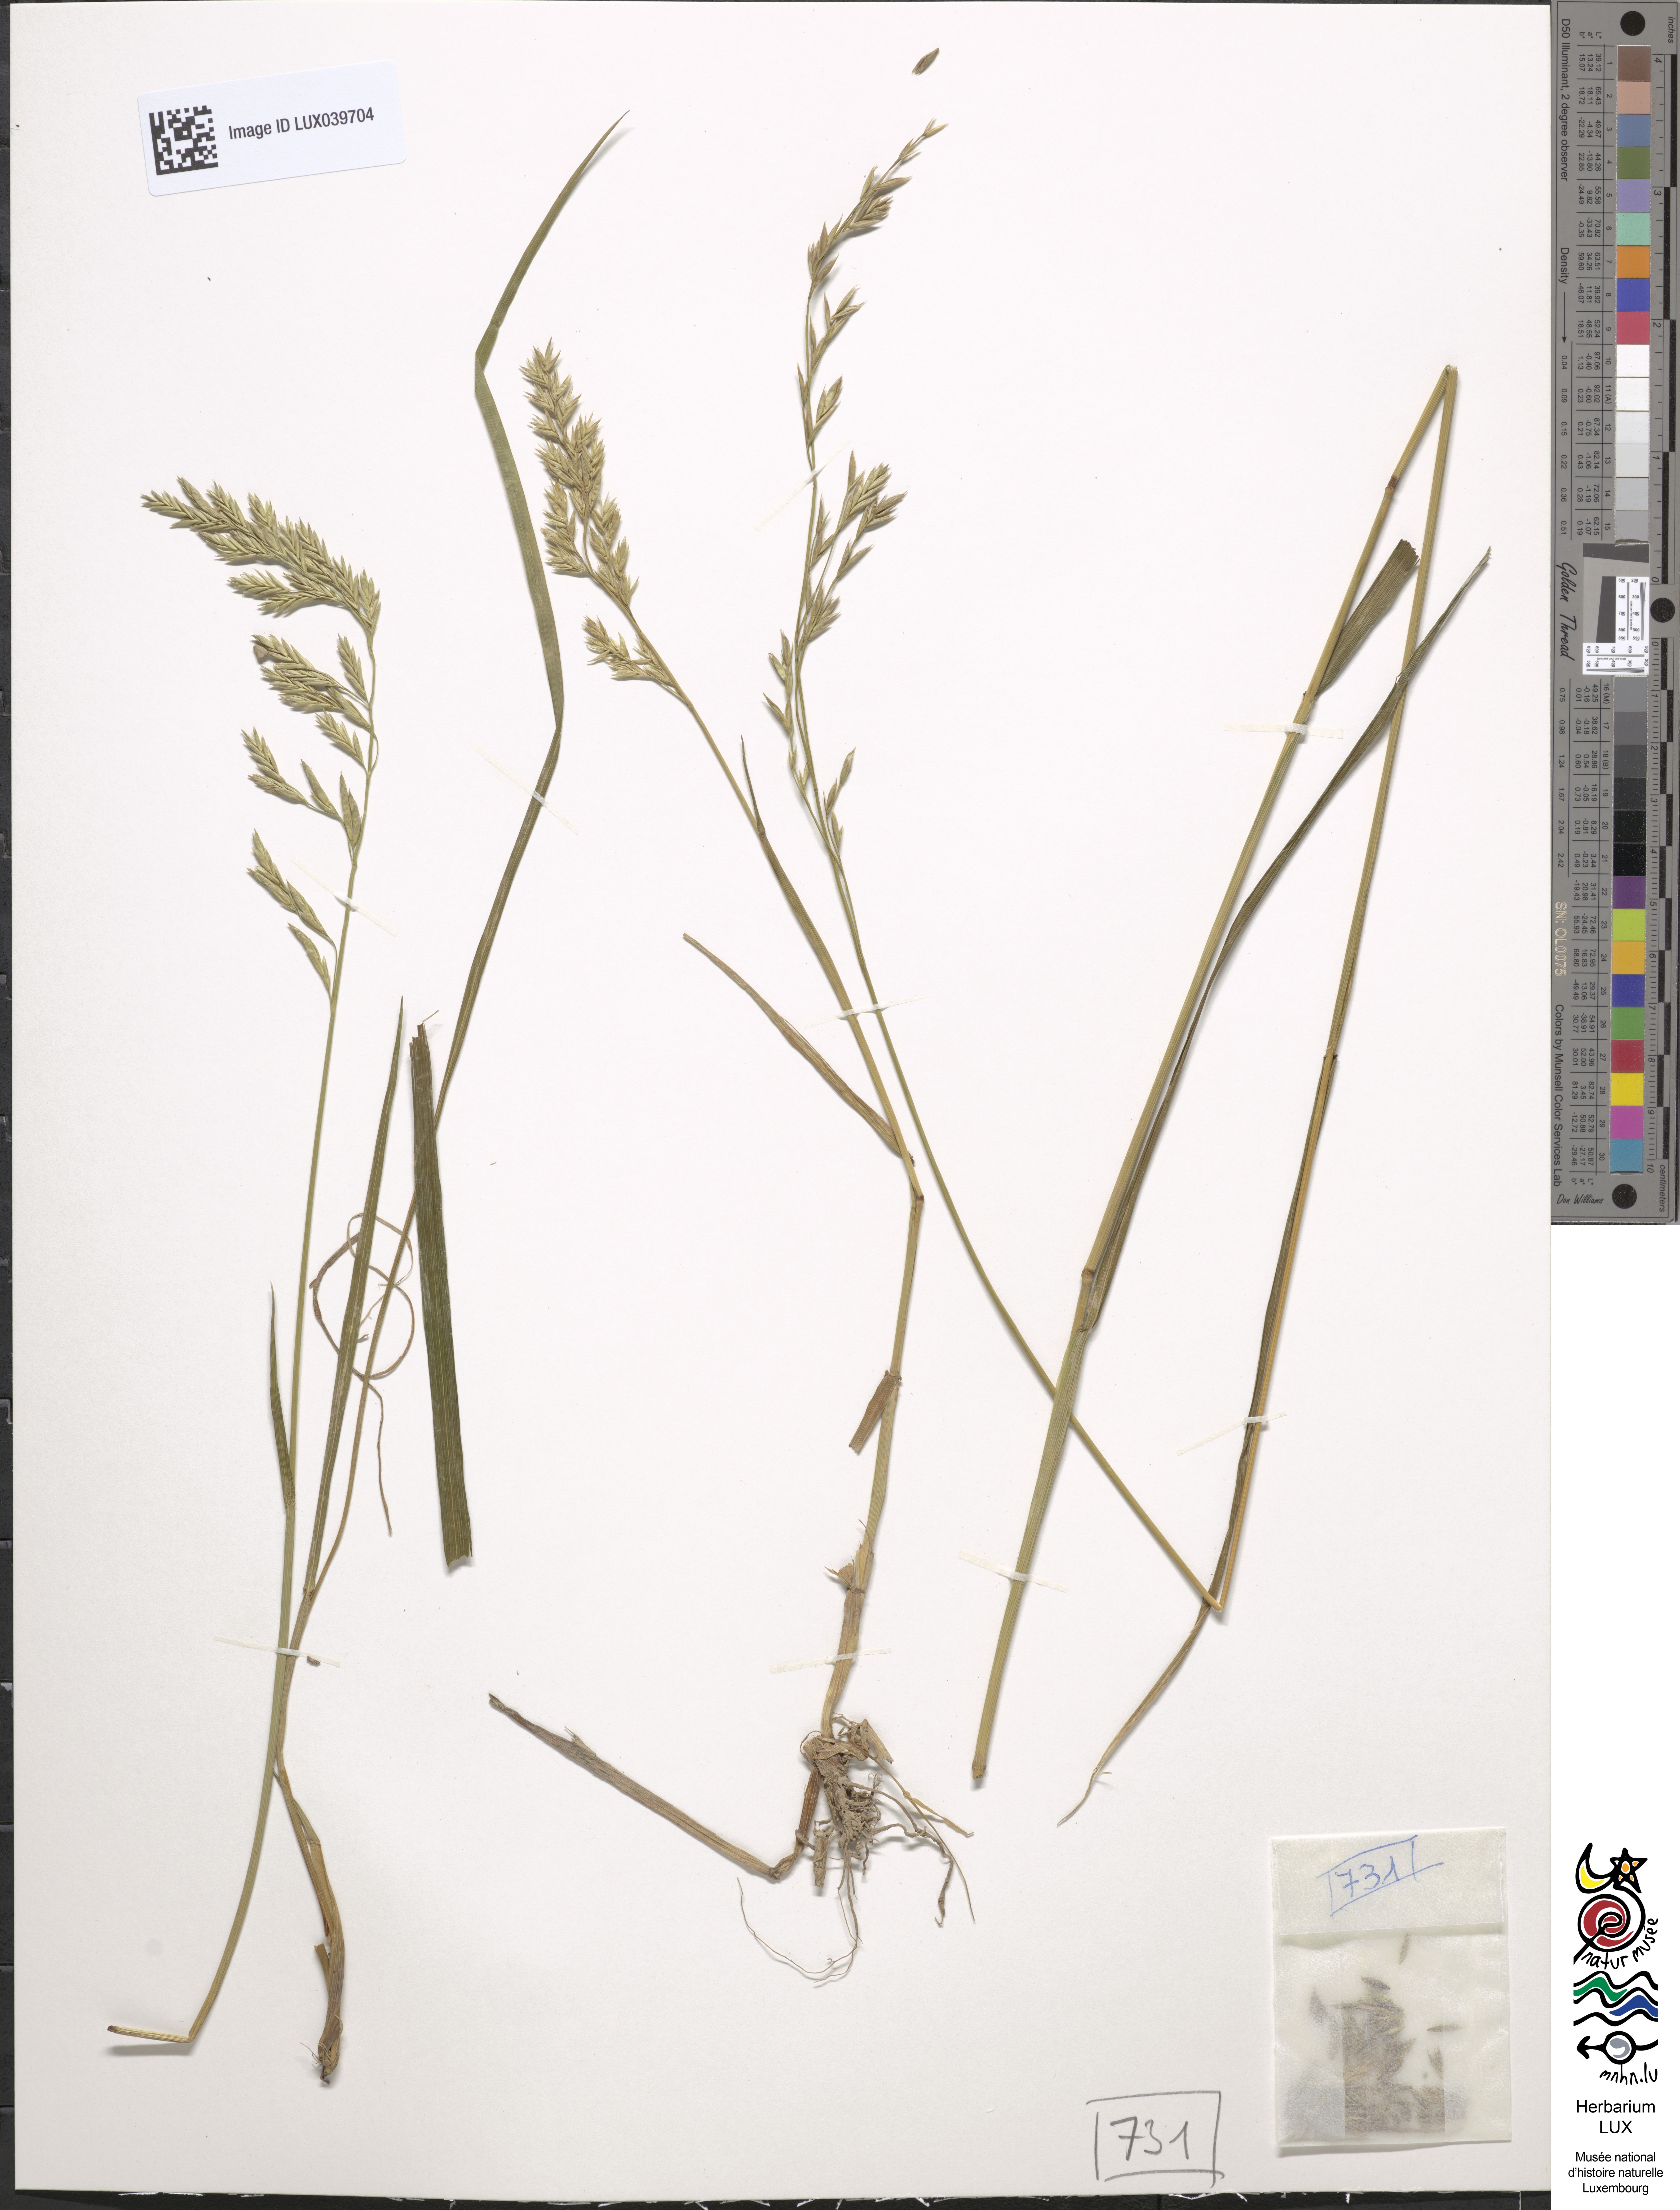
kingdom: Plantae
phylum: Tracheophyta
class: Liliopsida
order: Poales
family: Poaceae
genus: Lolium
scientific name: Lolium pratense
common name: Dover grass
